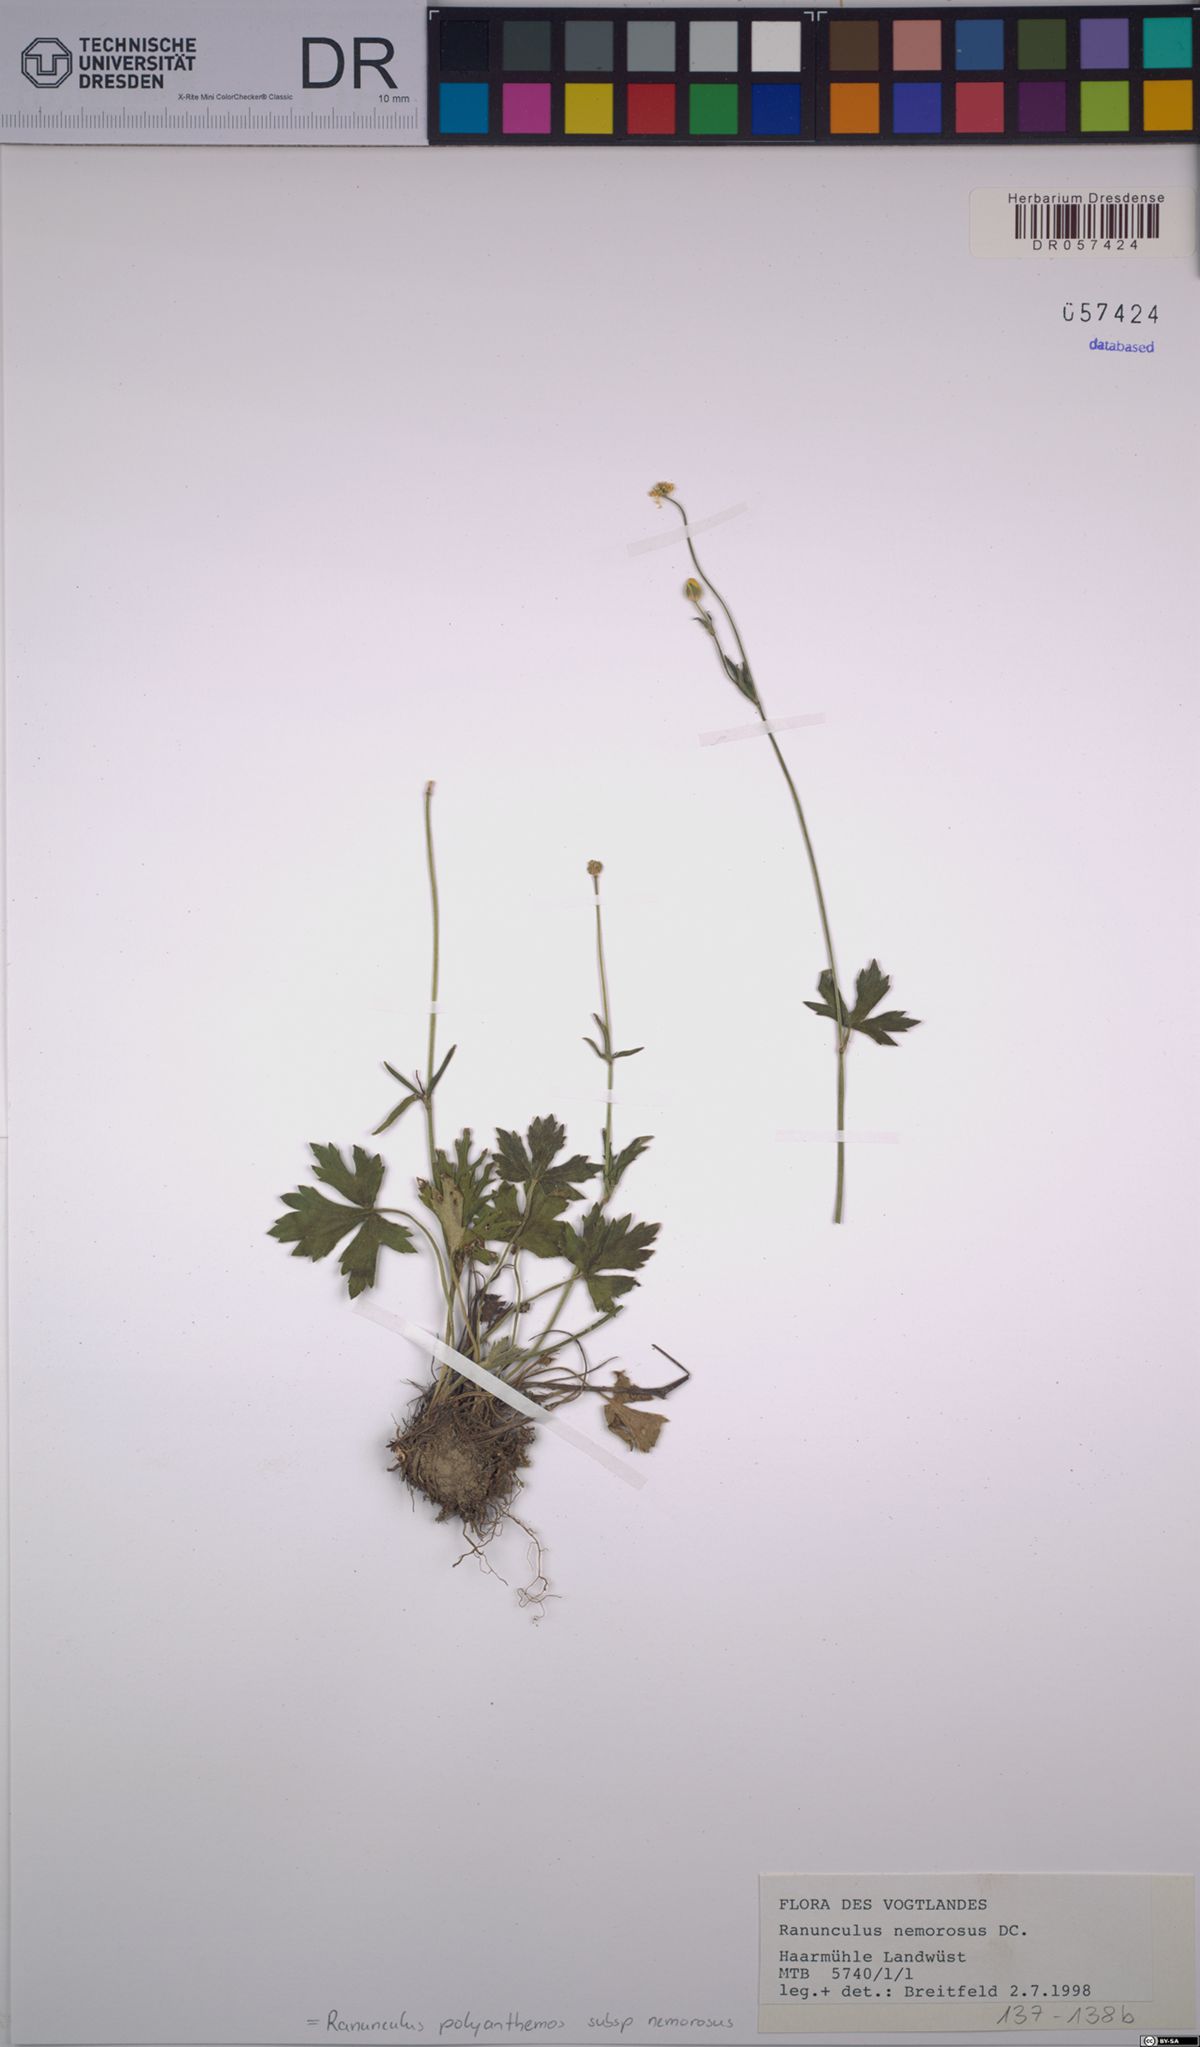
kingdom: Plantae
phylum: Tracheophyta
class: Magnoliopsida
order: Ranunculales
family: Ranunculaceae
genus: Ranunculus
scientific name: Ranunculus polyanthemos
